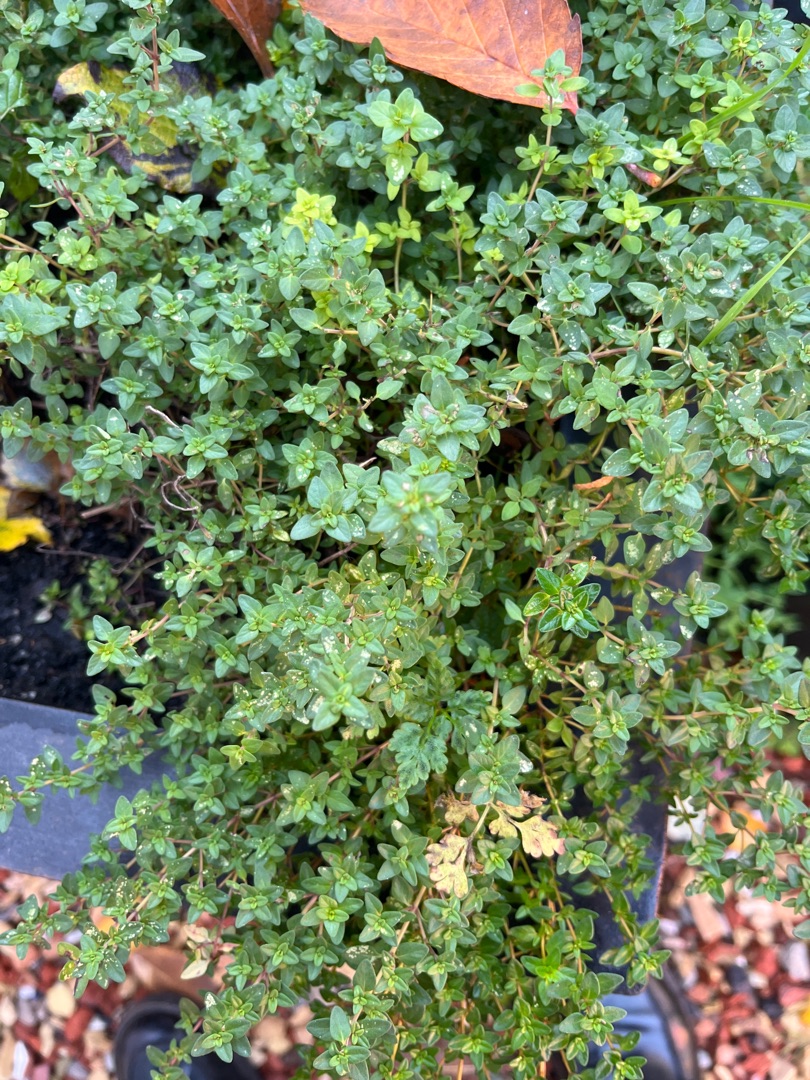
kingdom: Plantae
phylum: Tracheophyta
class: Magnoliopsida
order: Lamiales
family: Lamiaceae
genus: Thymus
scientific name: Thymus pulegioides
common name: Bredbladet timian
